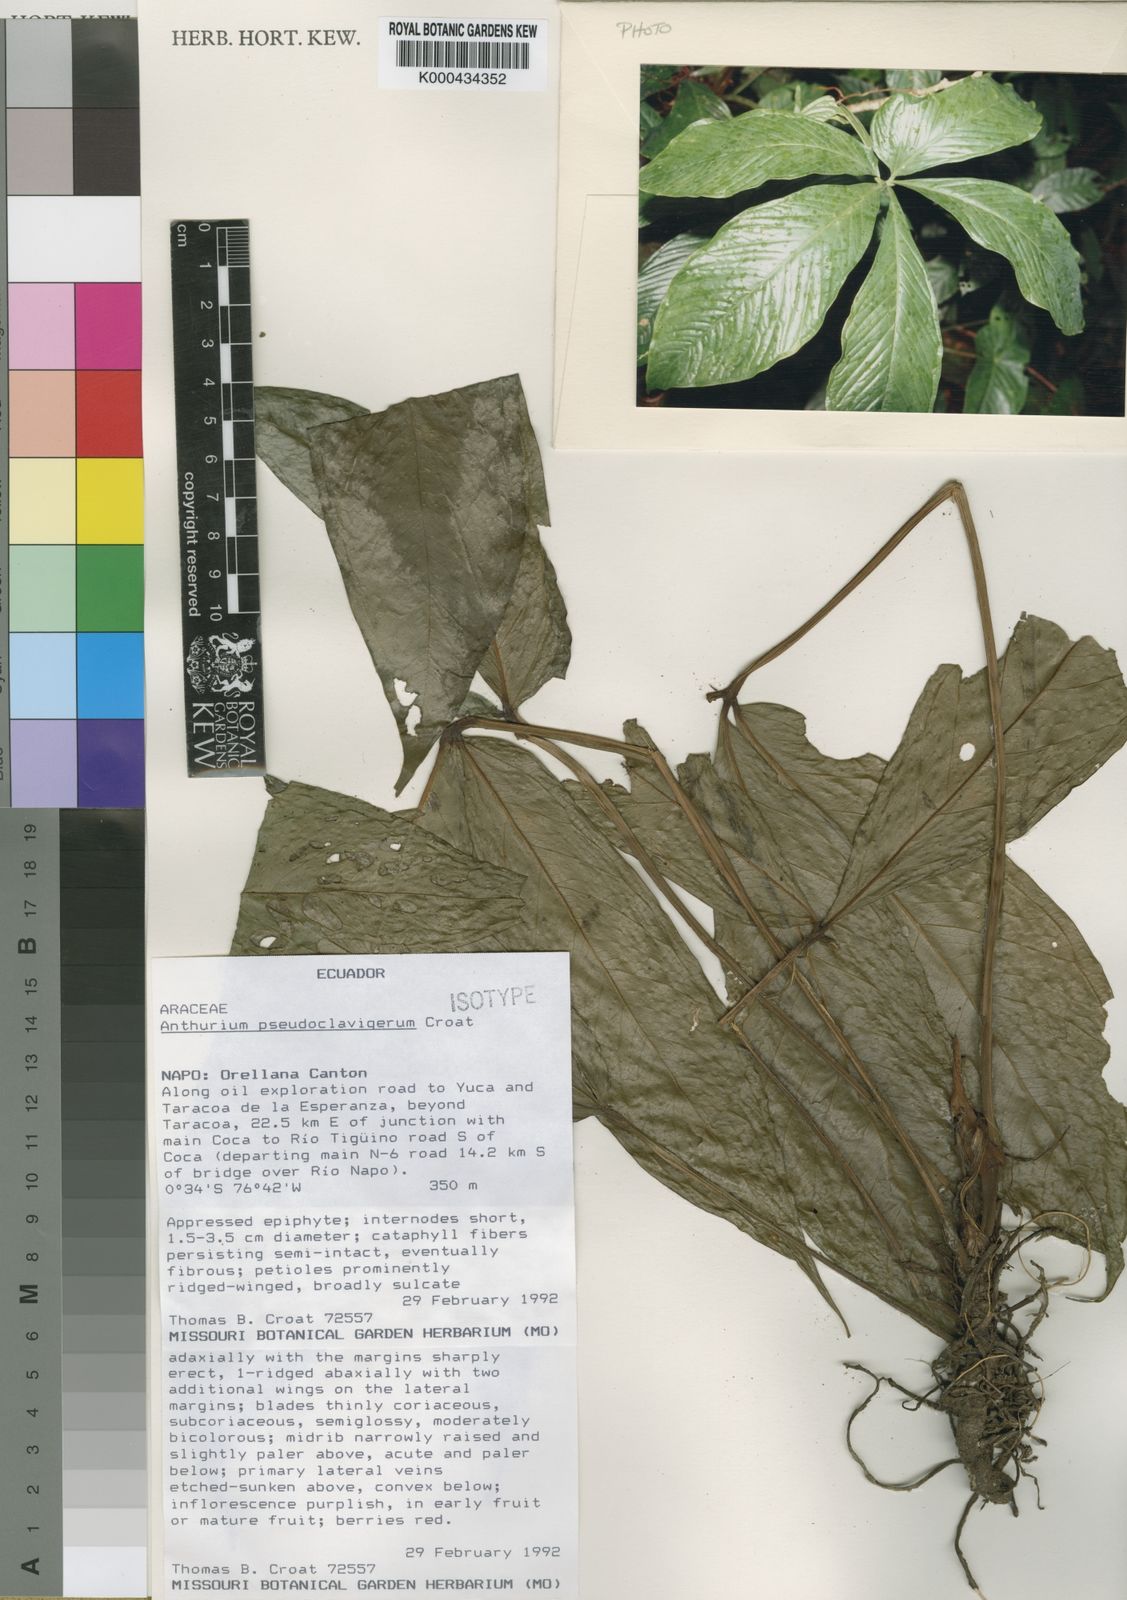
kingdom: Plantae
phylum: Tracheophyta
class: Liliopsida
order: Alismatales
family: Araceae
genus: Anthurium
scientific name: Anthurium
